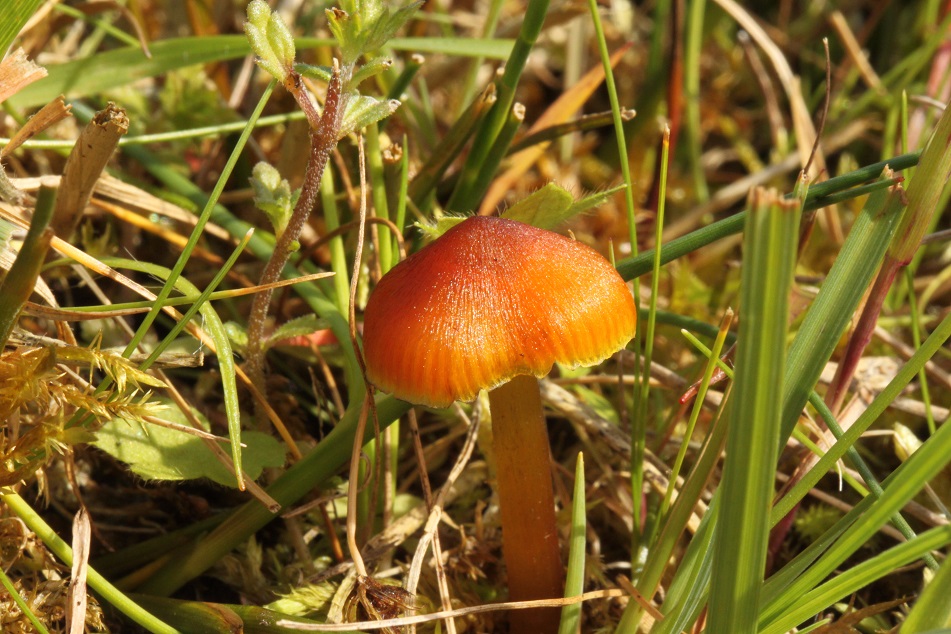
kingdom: Fungi
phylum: Basidiomycota
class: Agaricomycetes
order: Agaricales
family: Hygrophoraceae
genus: Hygrocybe
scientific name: Hygrocybe conica
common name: Blackening wax-cap
